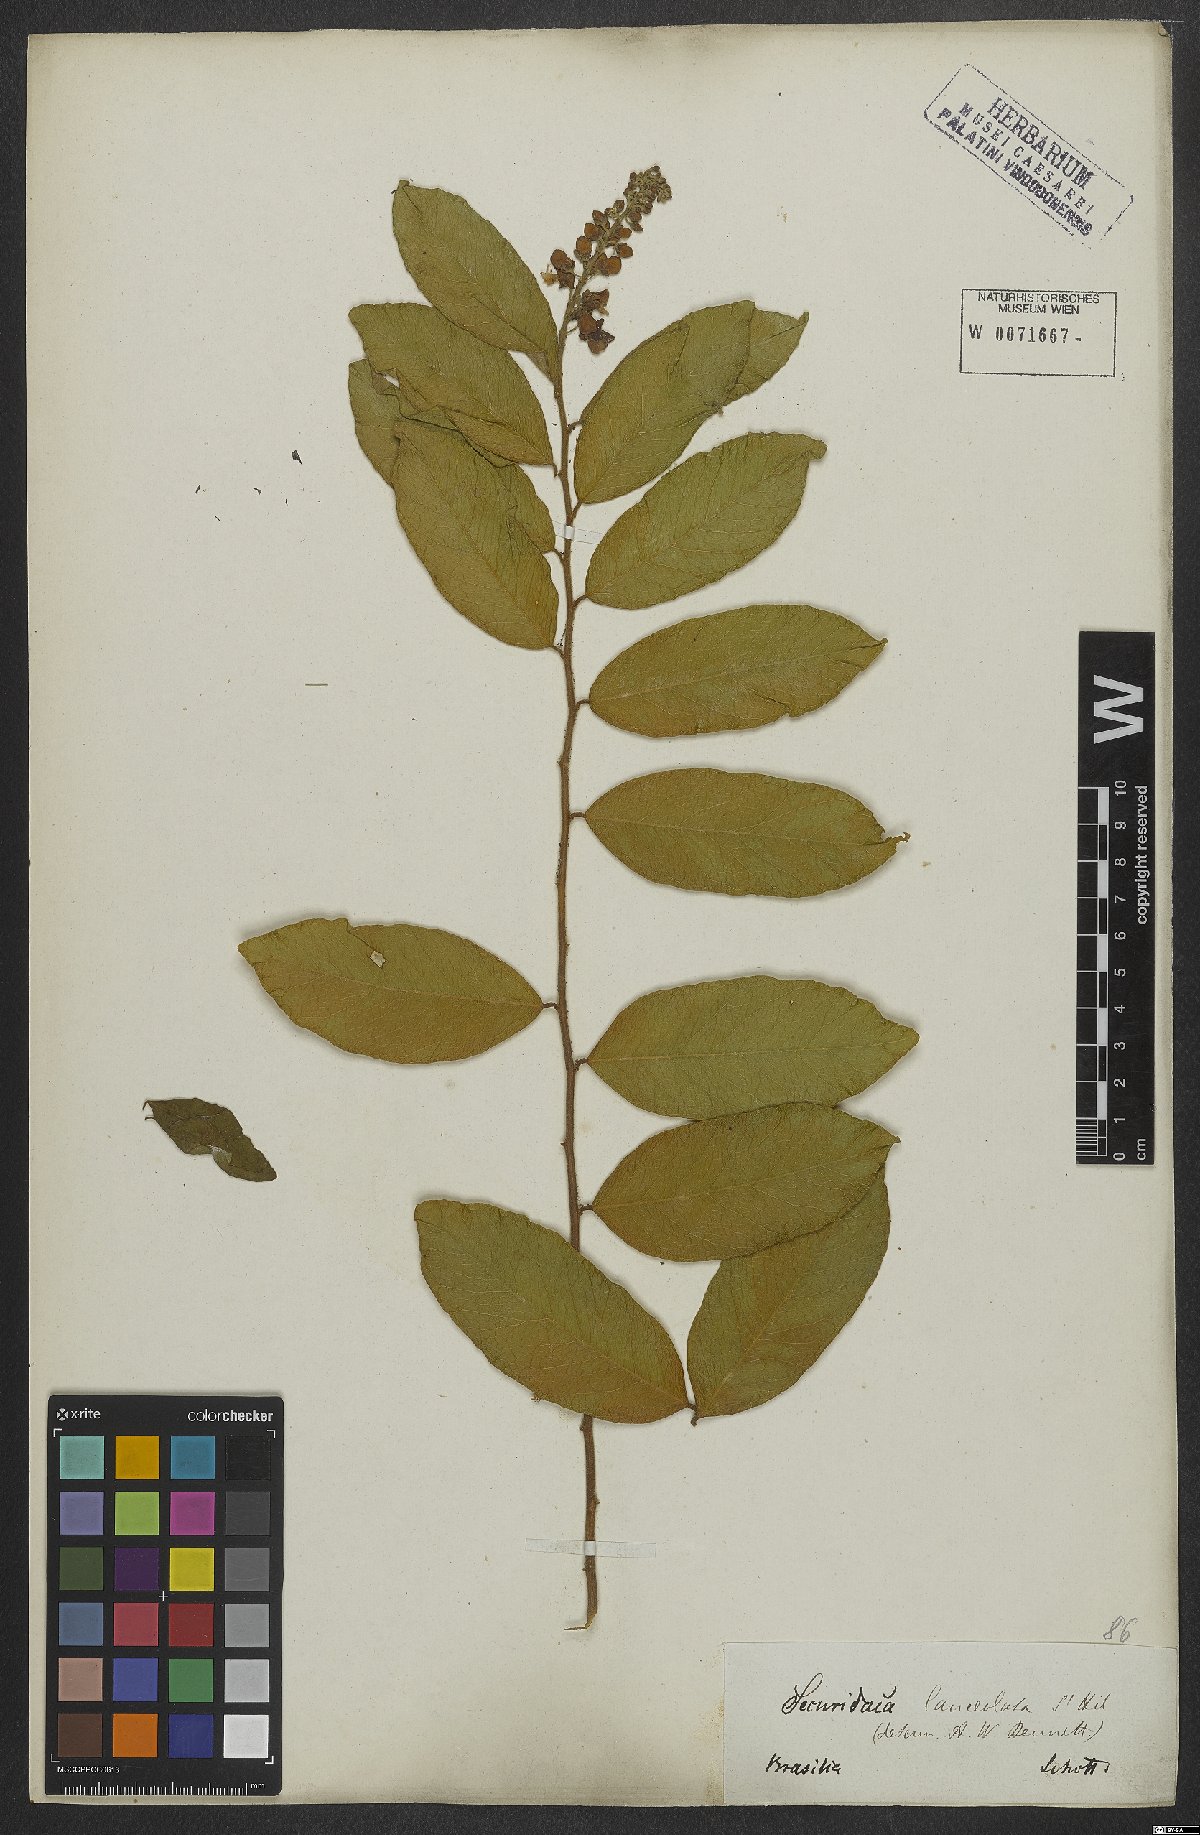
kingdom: Plantae
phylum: Tracheophyta
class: Magnoliopsida
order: Fabales
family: Polygalaceae
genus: Securidaca
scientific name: Securidaca lanceolata
